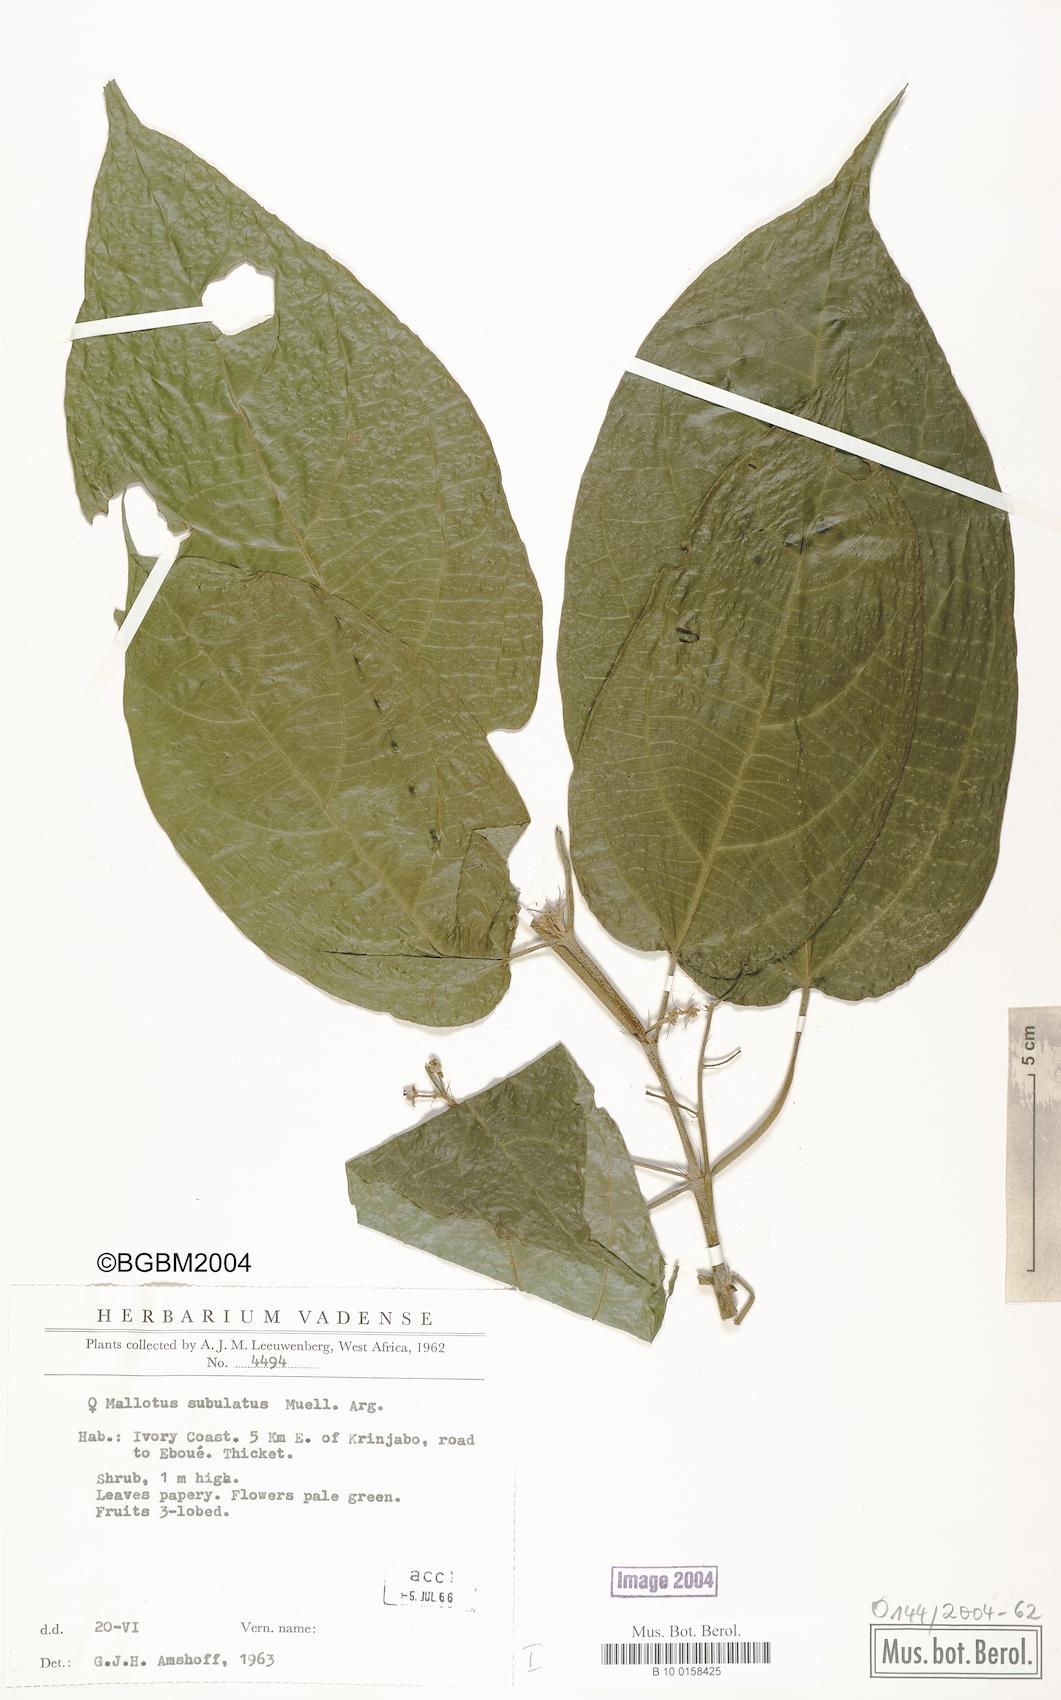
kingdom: Plantae
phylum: Tracheophyta
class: Magnoliopsida
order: Malpighiales
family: Euphorbiaceae
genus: Mallotus
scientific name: Mallotus subulatus
